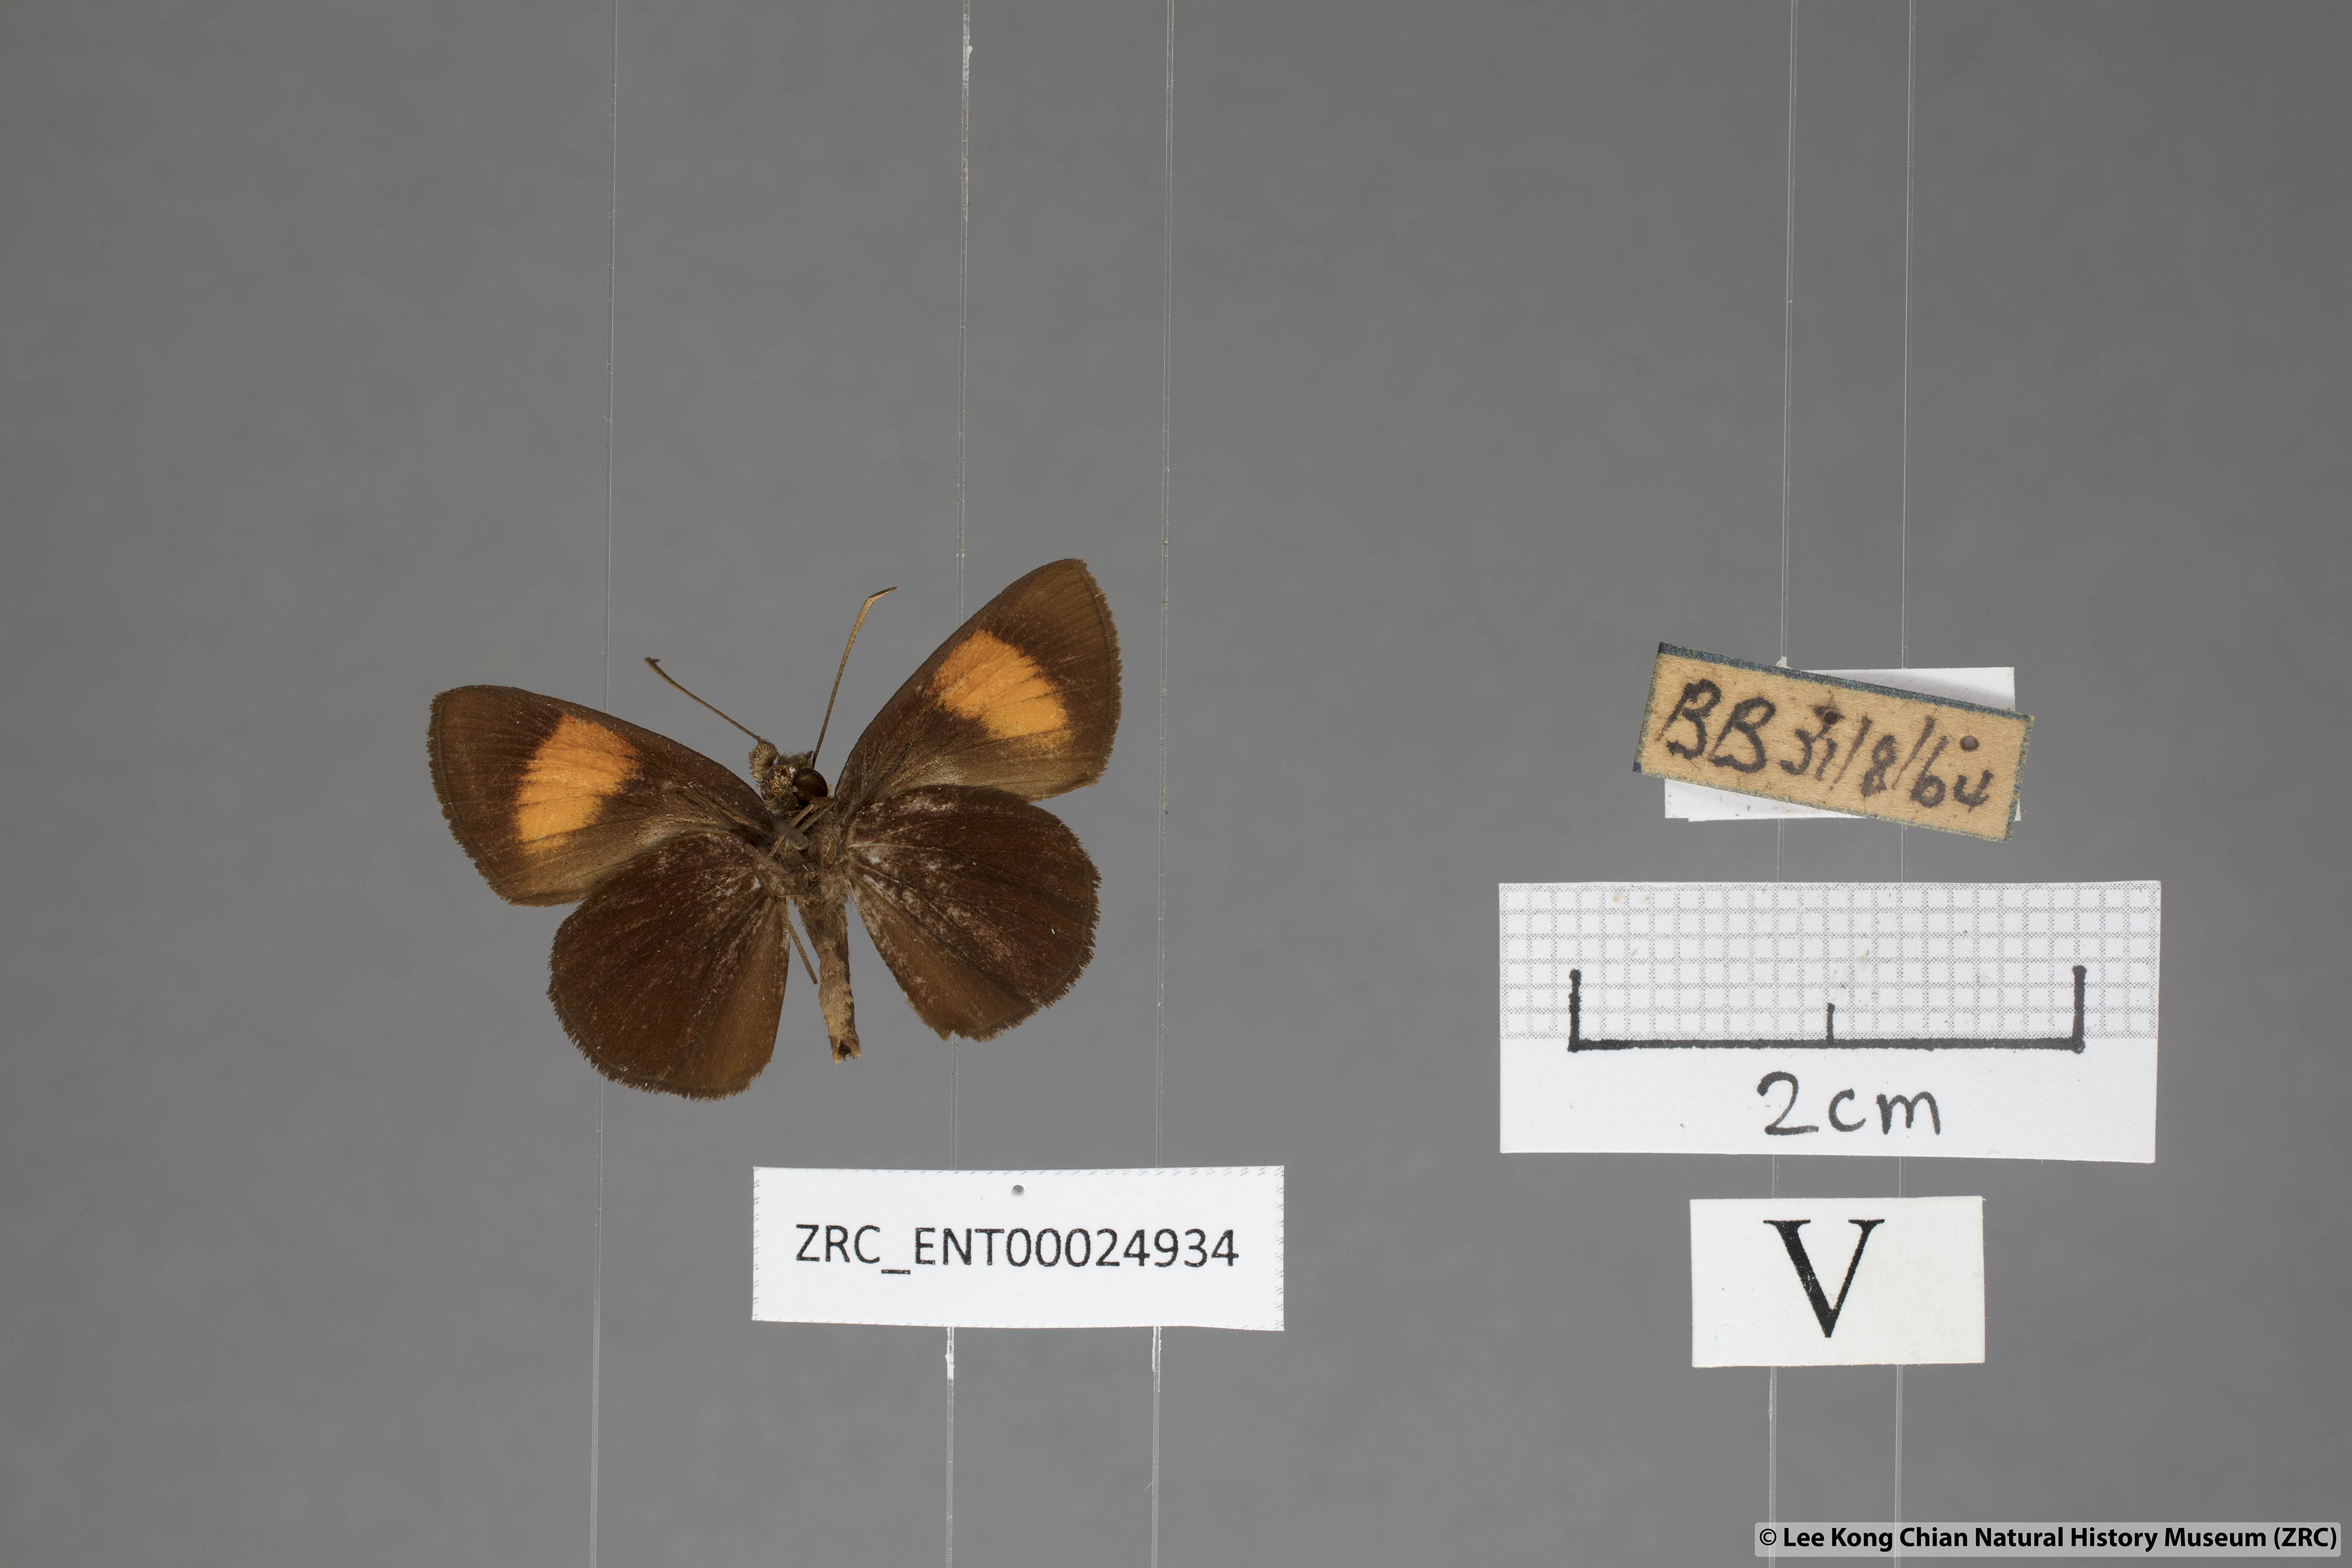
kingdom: Animalia
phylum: Arthropoda
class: Insecta
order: Lepidoptera
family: Hesperiidae
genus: Koruthaialos
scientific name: Koruthaialos rubecula
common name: Narrow-banded velvet bob
